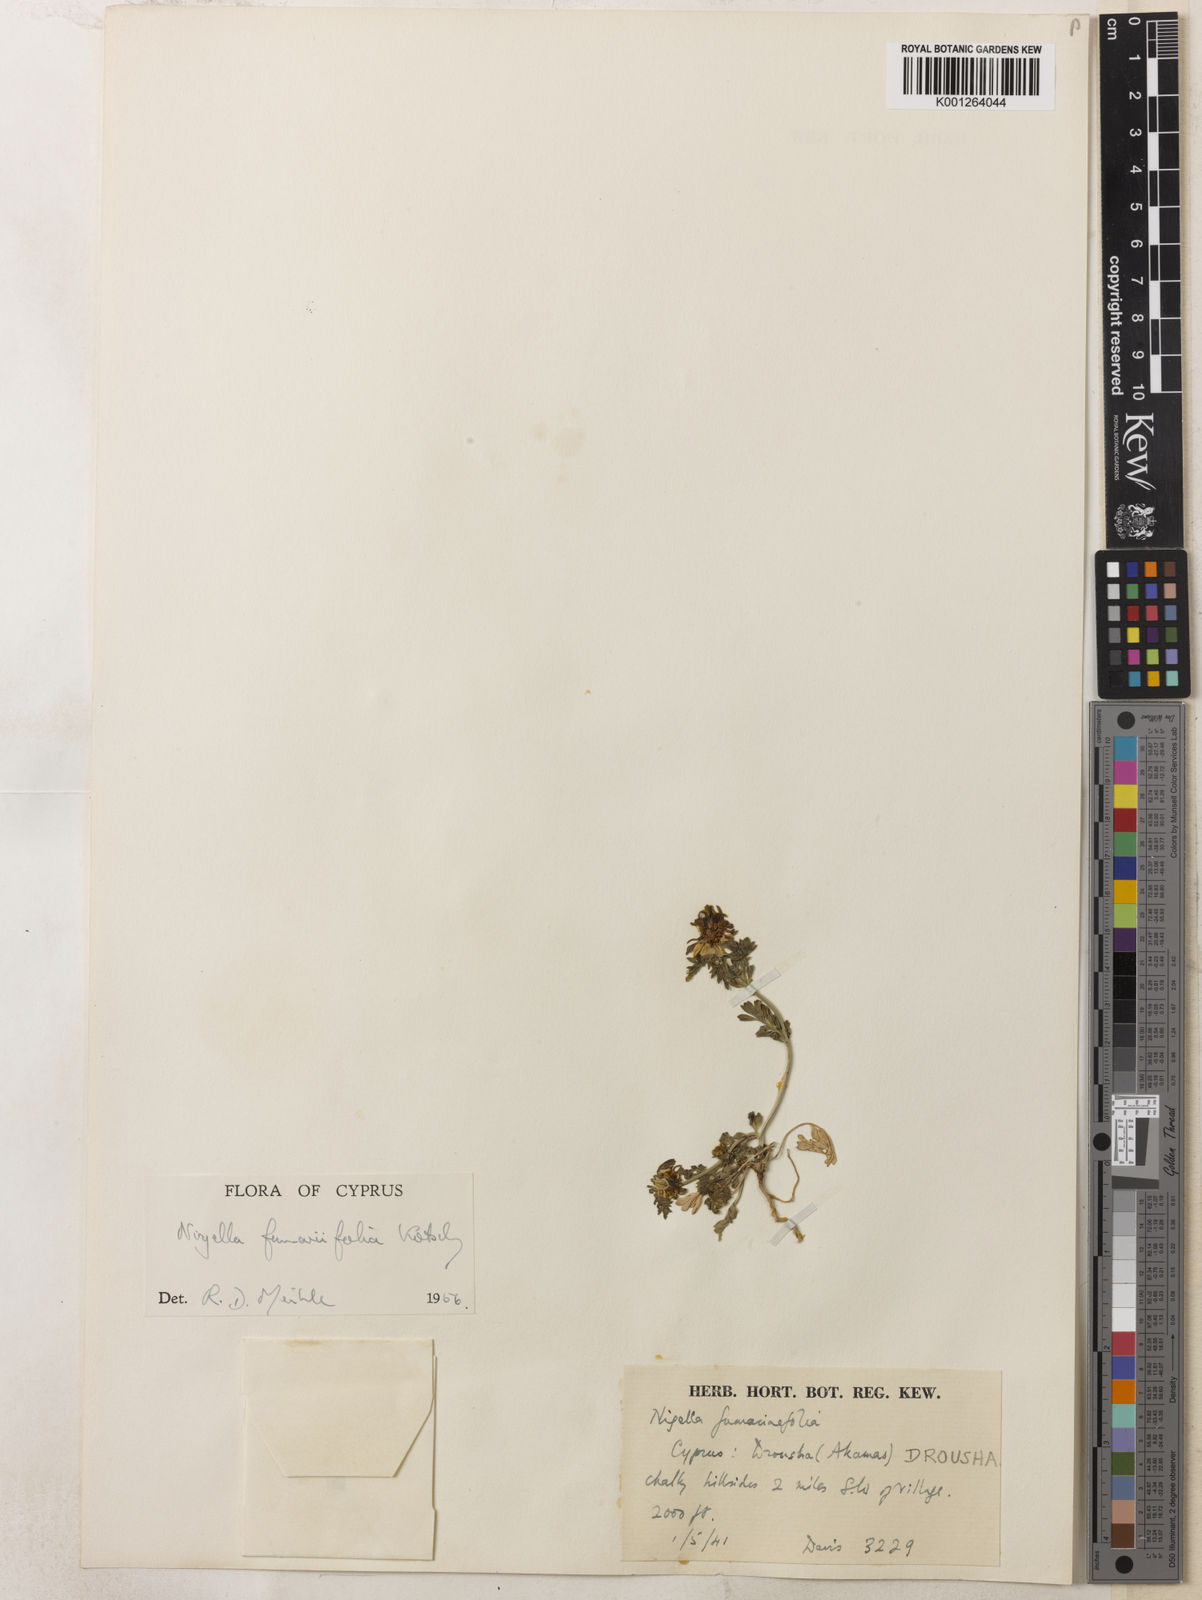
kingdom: Plantae
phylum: Tracheophyta
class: Magnoliopsida
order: Ranunculales
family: Ranunculaceae
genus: Nigella
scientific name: Nigella
